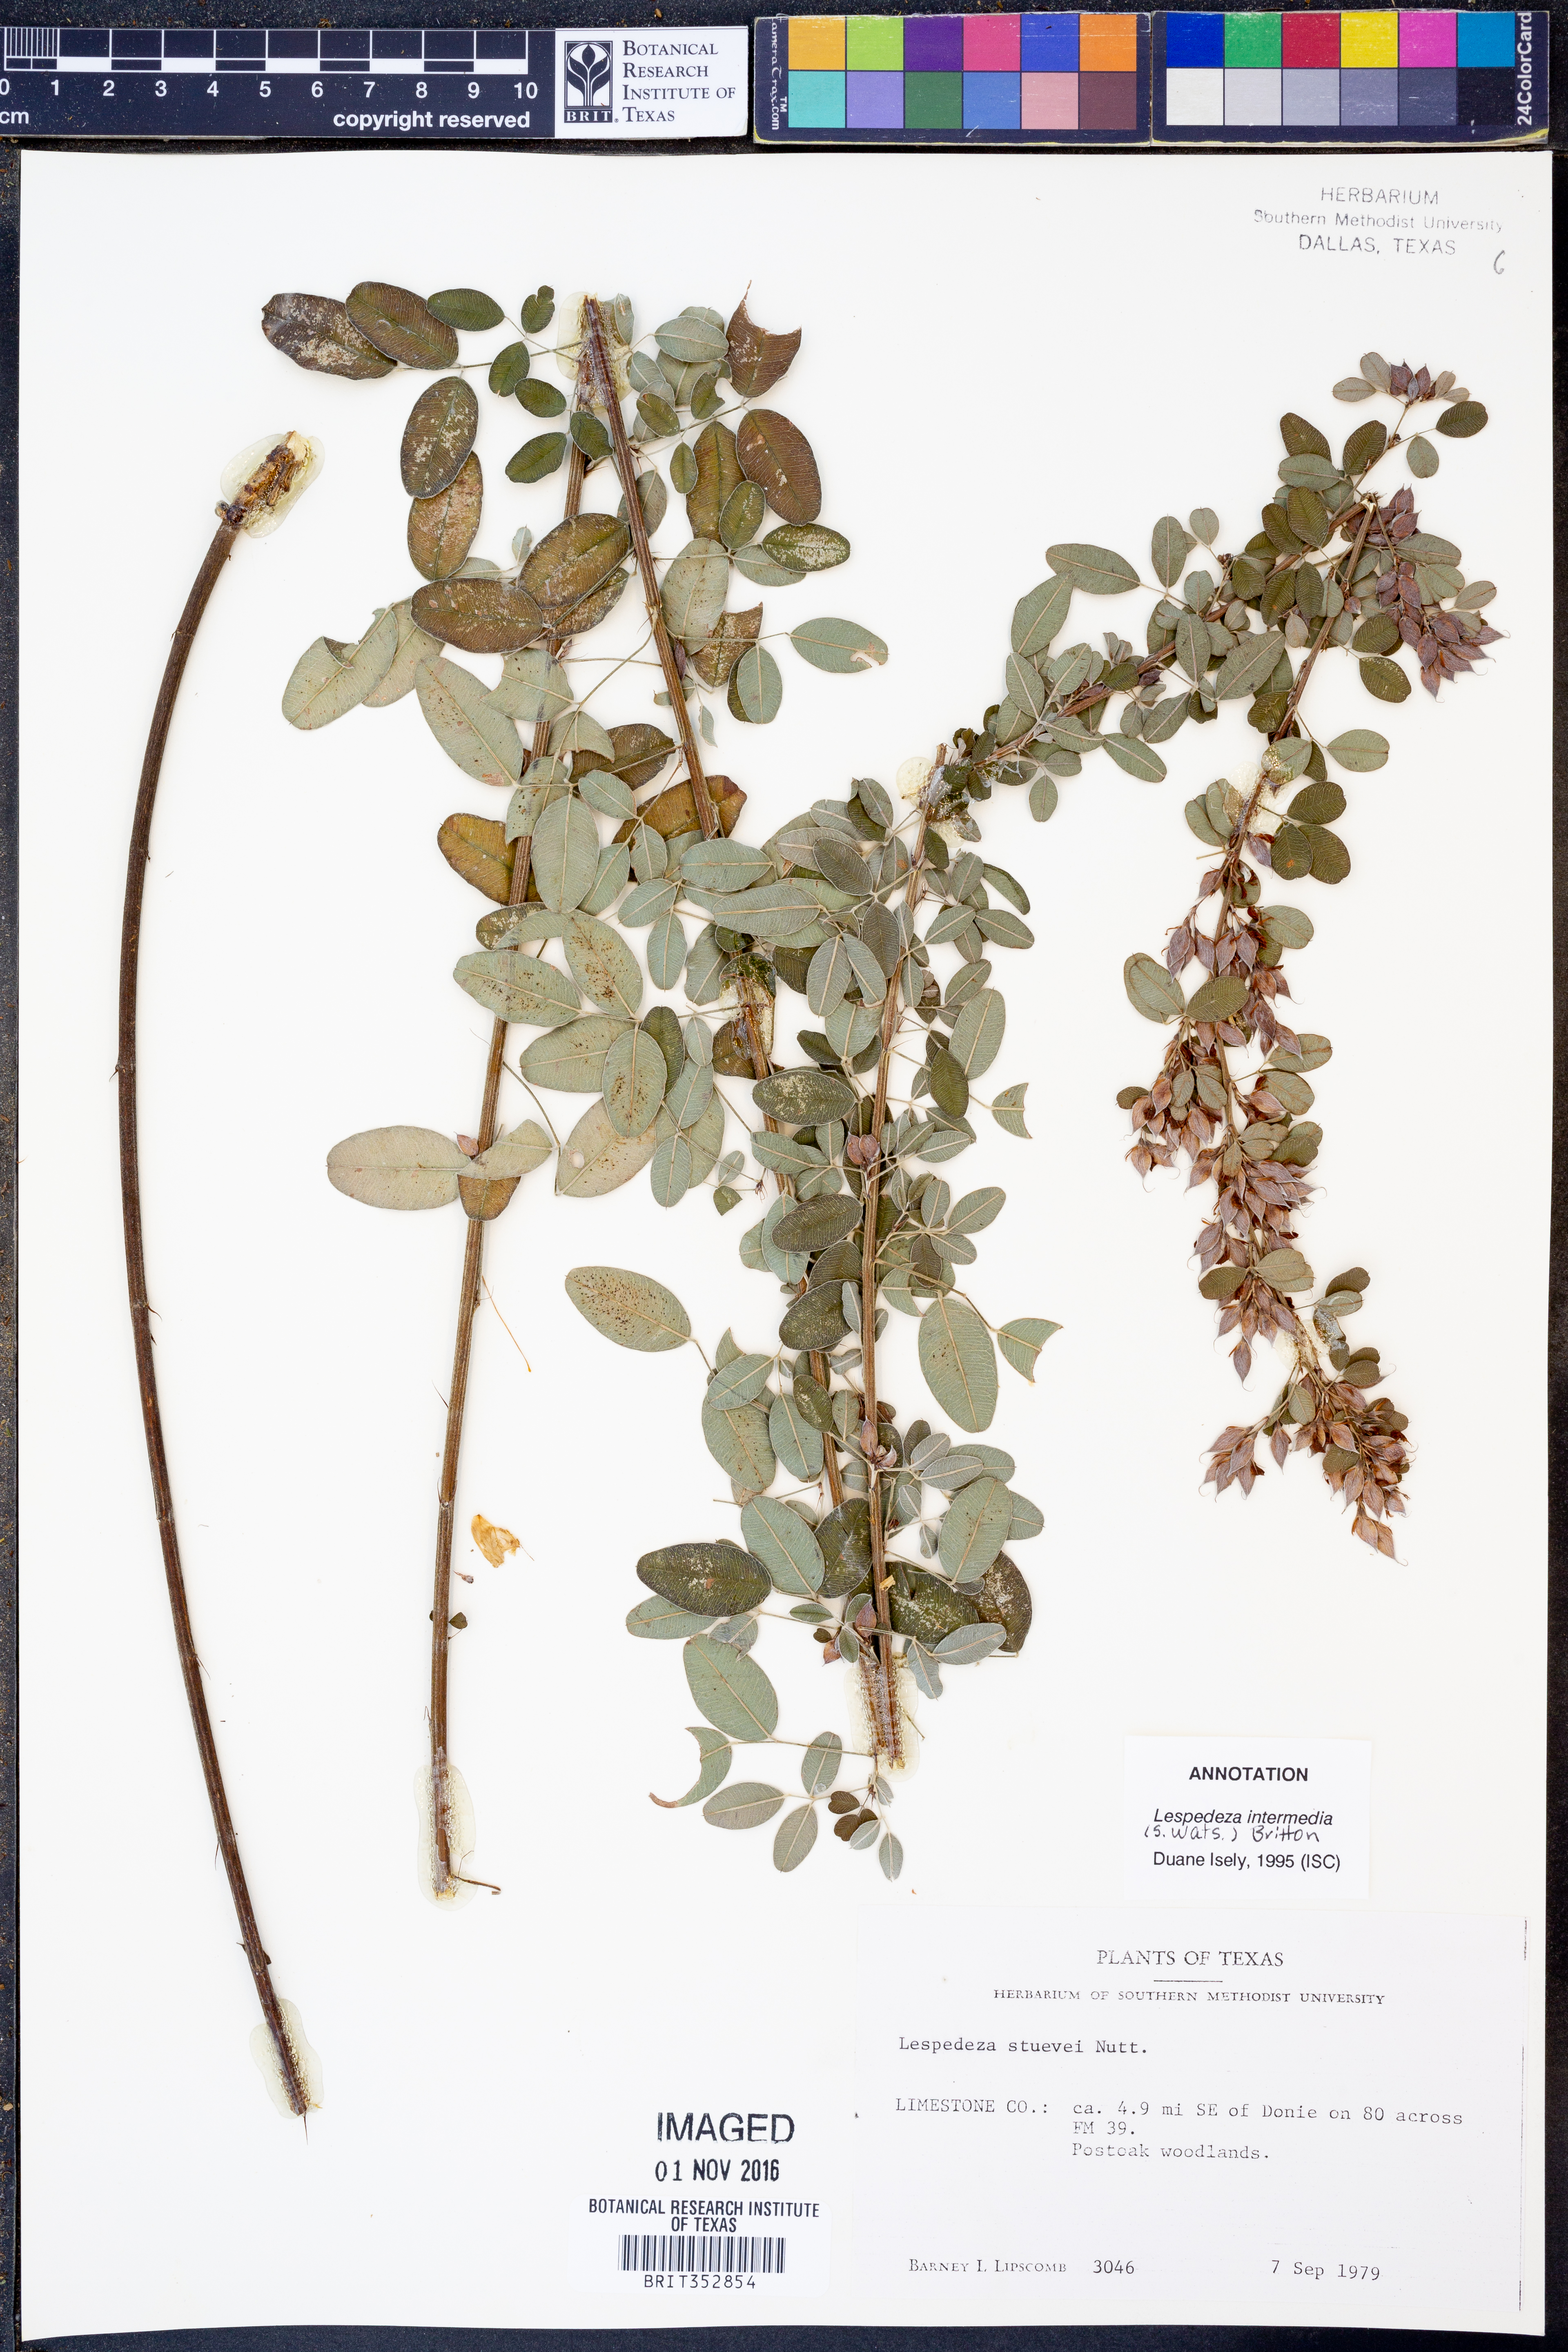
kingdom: Plantae
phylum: Tracheophyta
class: Magnoliopsida
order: Fabales
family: Fabaceae
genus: Lespedeza
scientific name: Lespedeza stuevei
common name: Tall bush-clover
